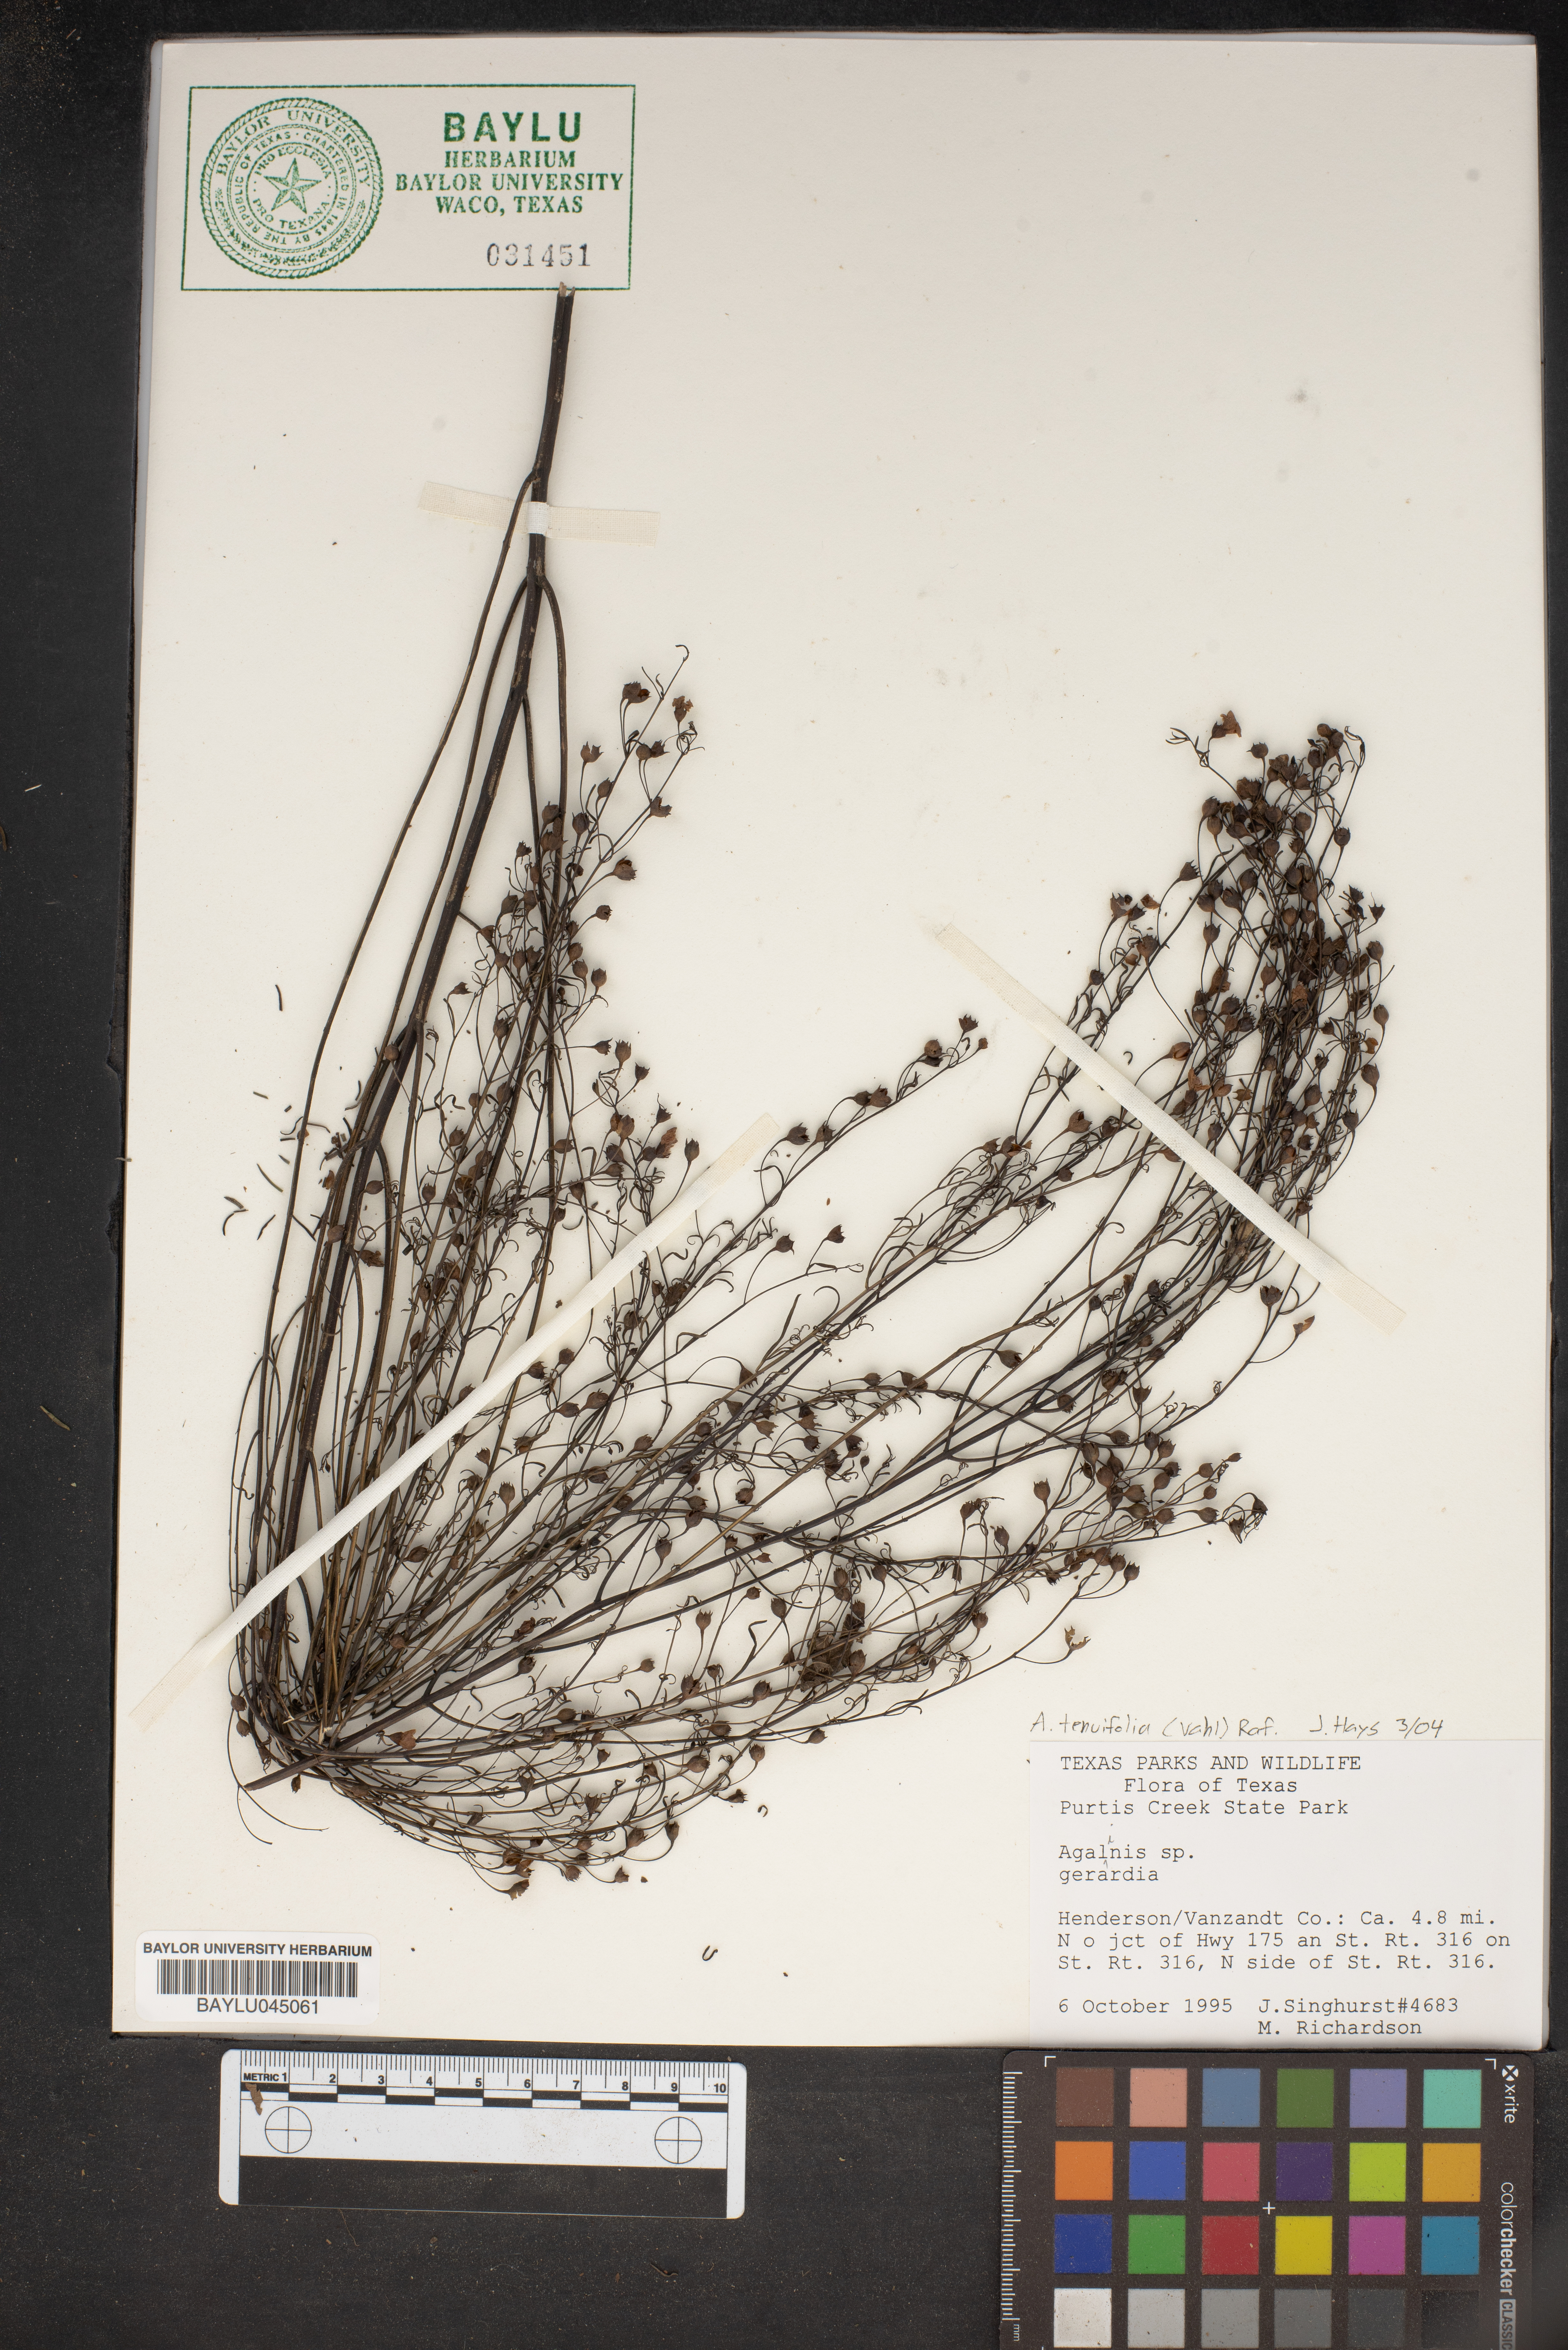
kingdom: Plantae
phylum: Tracheophyta
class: Magnoliopsida
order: Lamiales
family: Orobanchaceae
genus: Agalinis
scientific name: Agalinis
